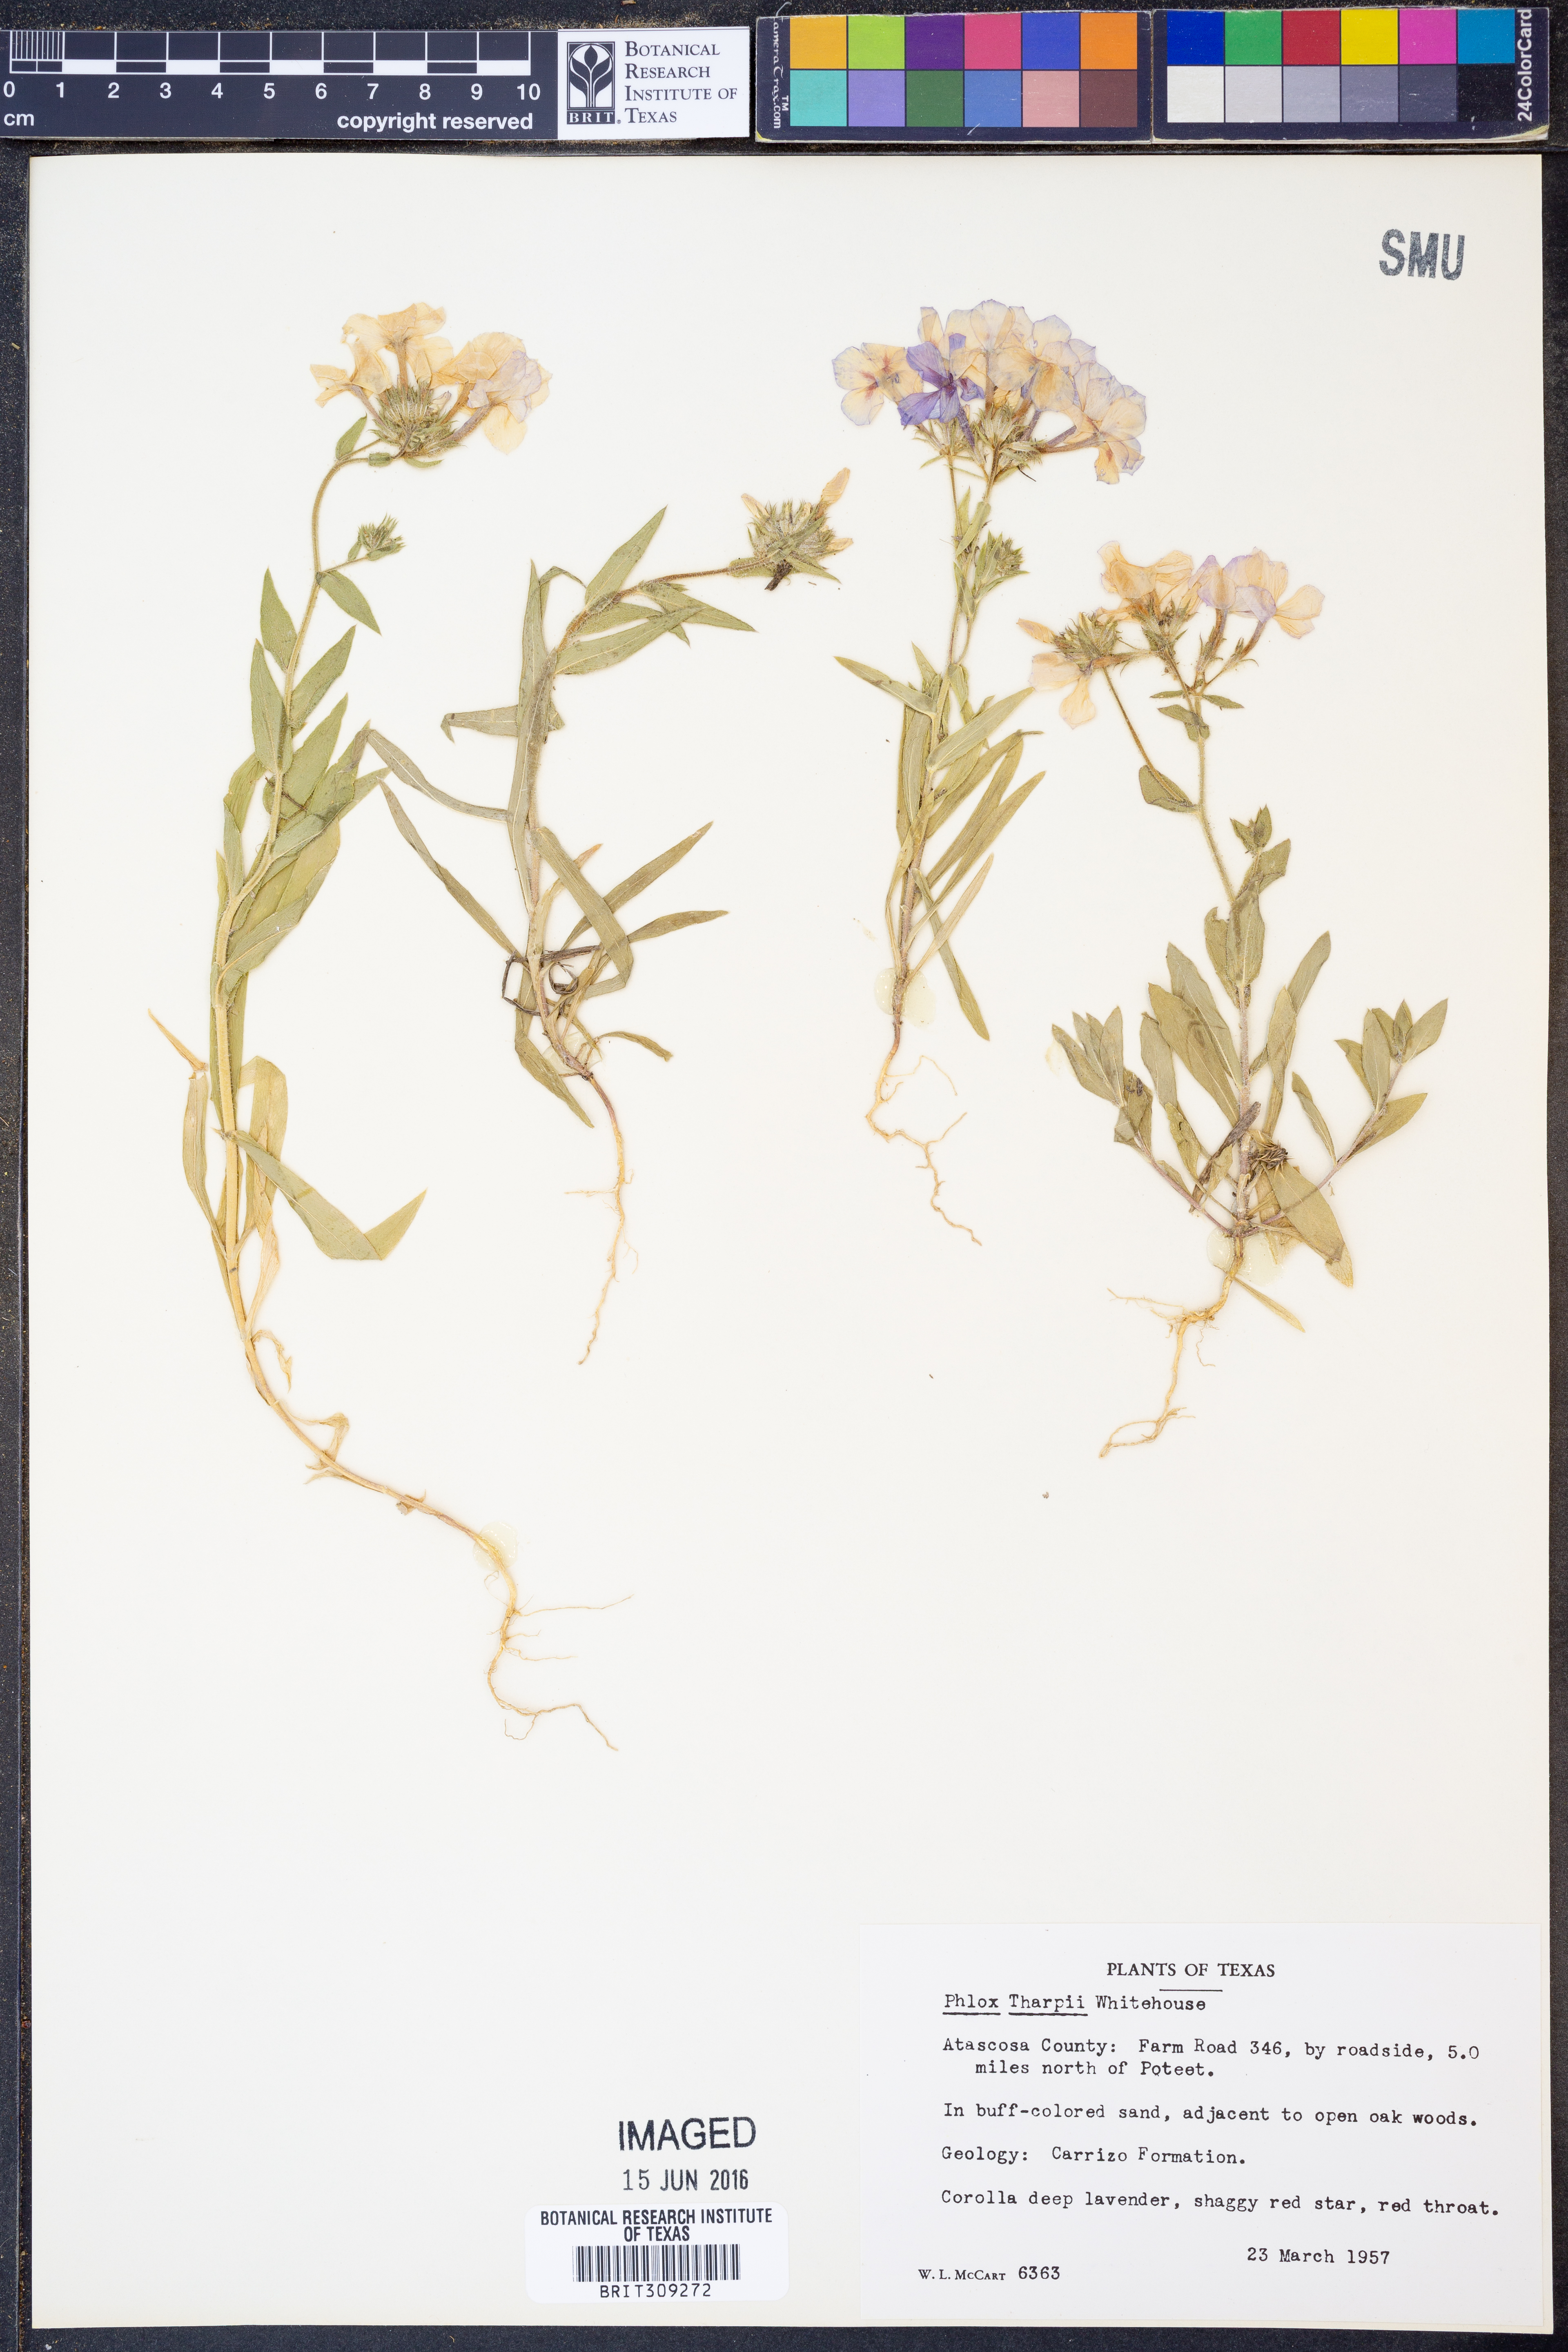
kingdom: Plantae
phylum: Tracheophyta
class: Magnoliopsida
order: Ericales
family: Polemoniaceae
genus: Phlox
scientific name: Phlox drummondii
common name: Drummond's phlox
